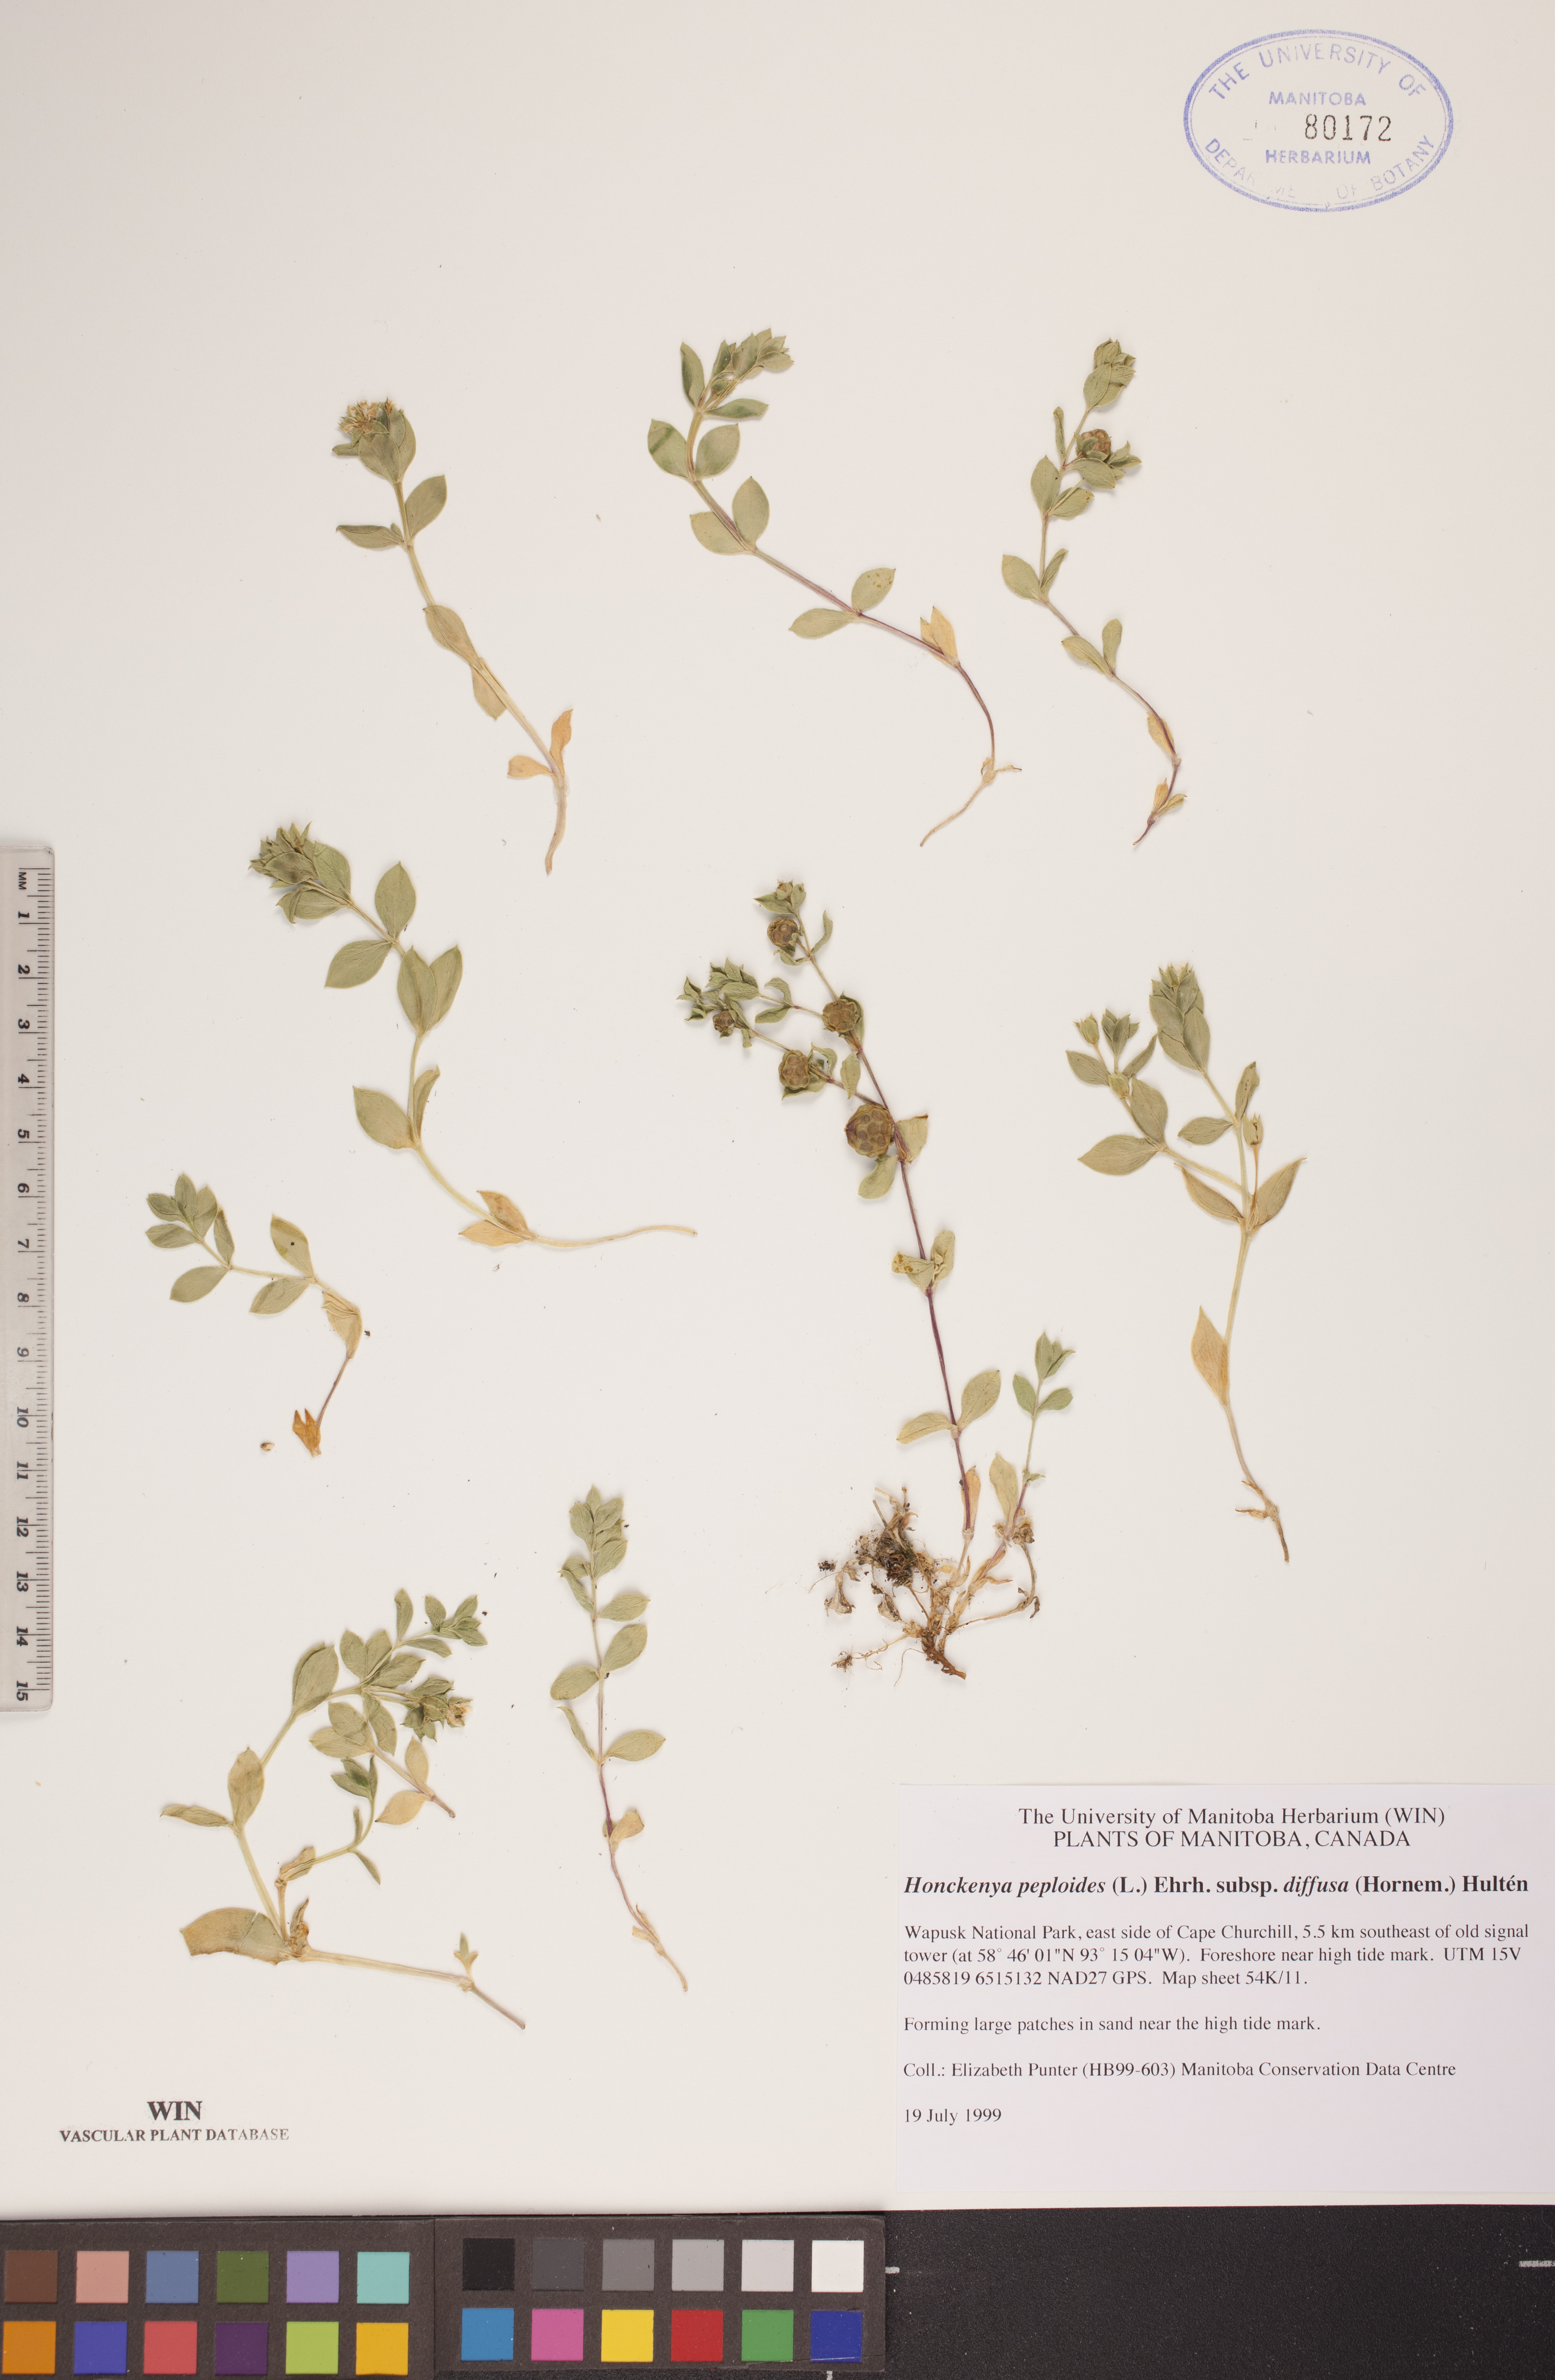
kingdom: Plantae
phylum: Tracheophyta
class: Magnoliopsida
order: Caryophyllales
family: Caryophyllaceae
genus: Honckenya
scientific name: Honckenya peploides
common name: Sea sandwort
